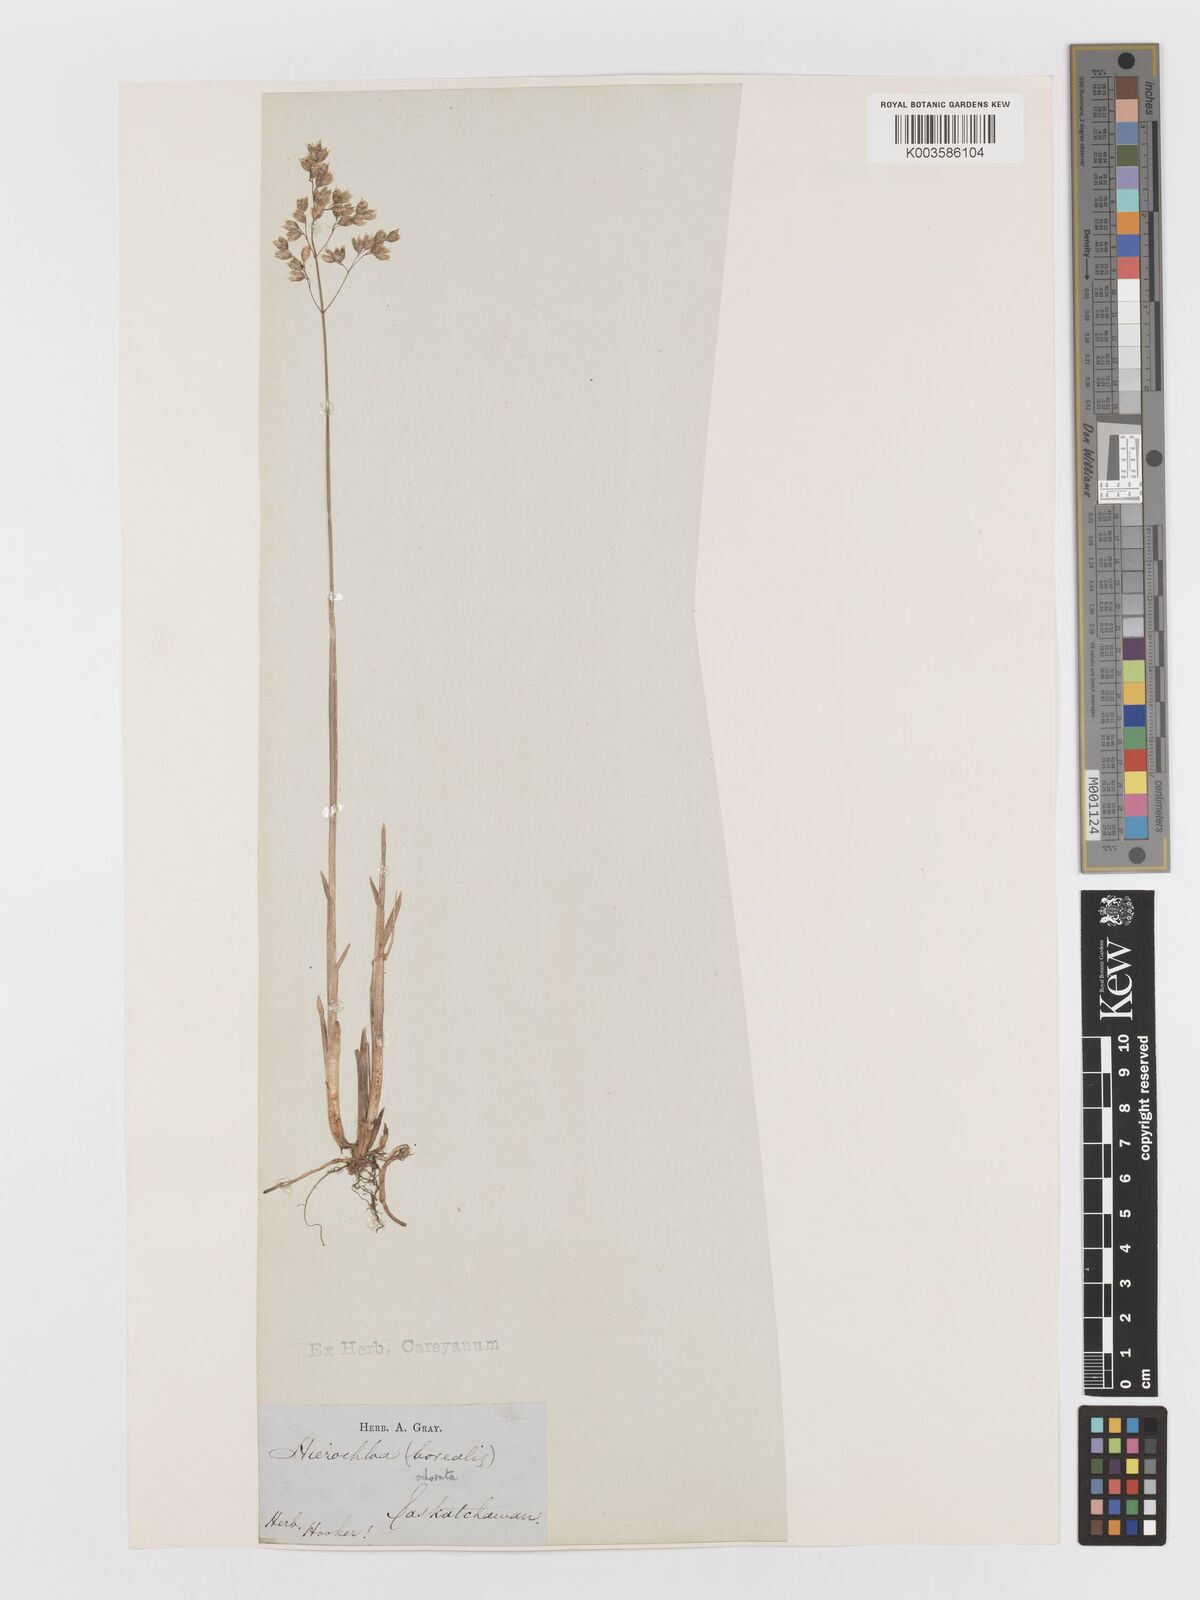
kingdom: Plantae
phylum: Tracheophyta
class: Liliopsida
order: Poales
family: Poaceae
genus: Anthoxanthum
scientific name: Anthoxanthum nitens
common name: Holy grass
